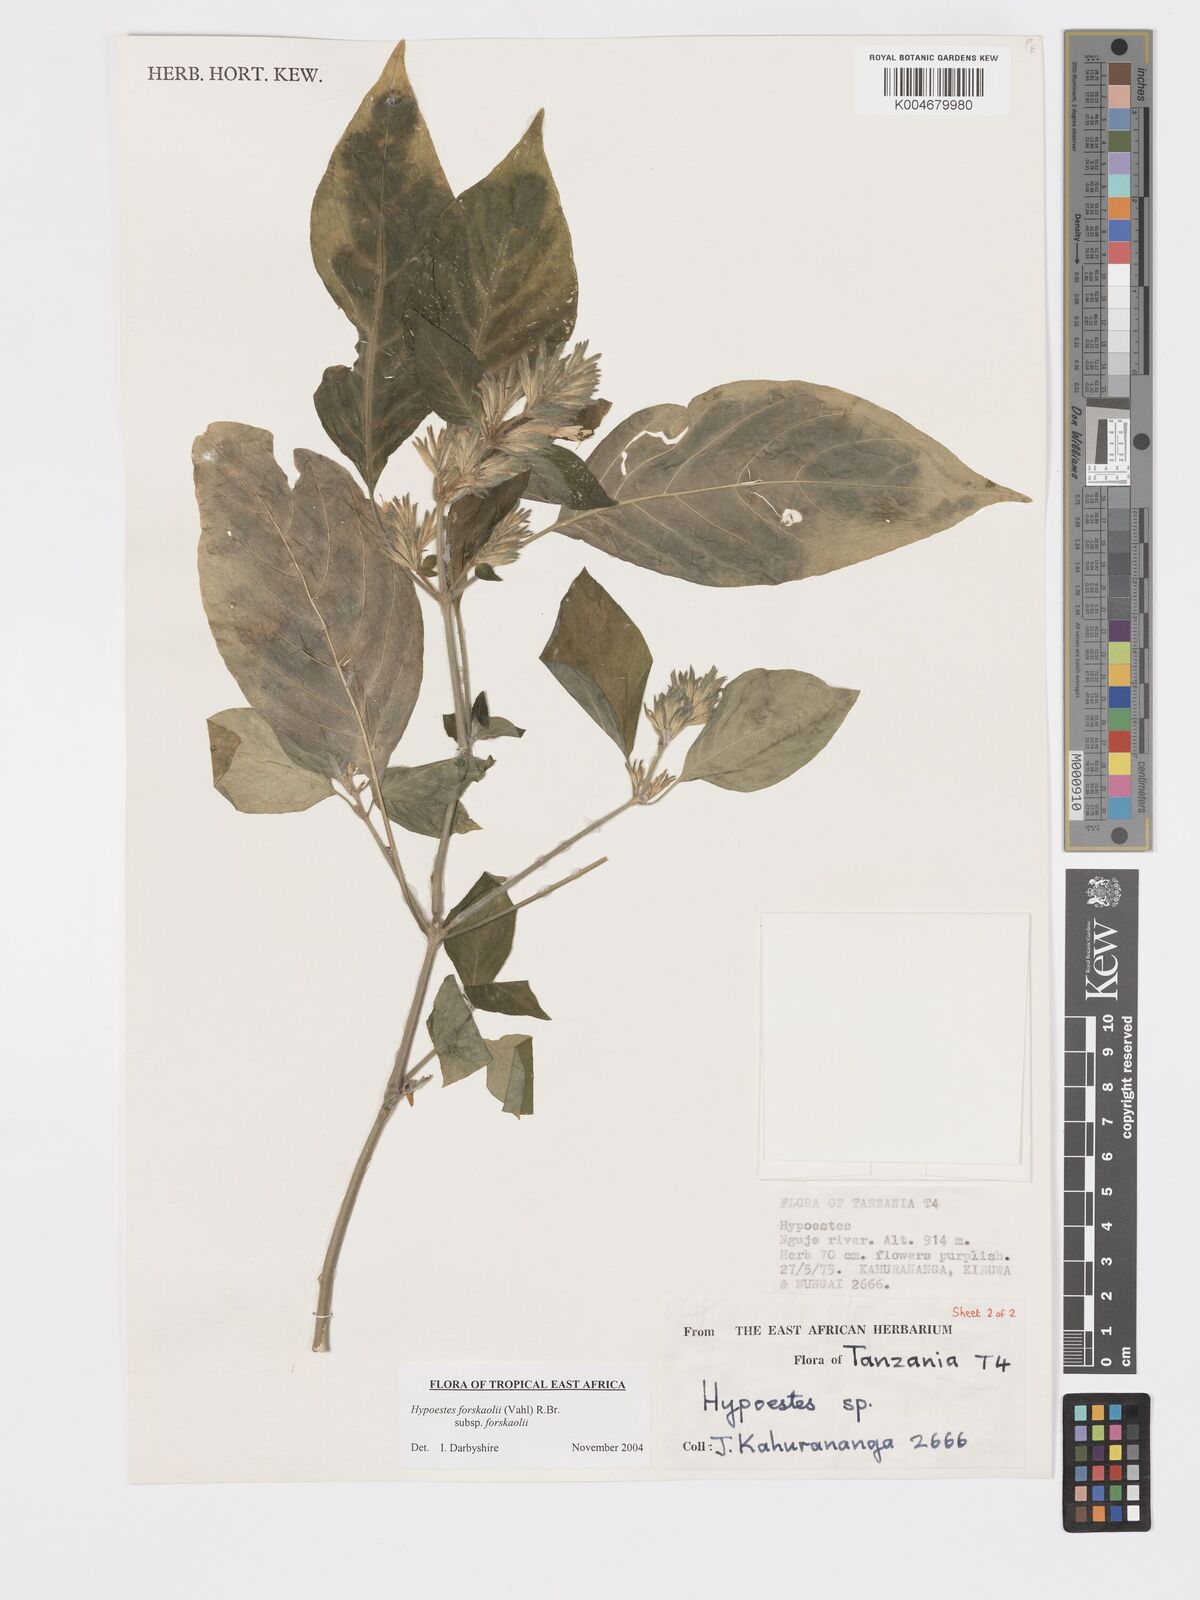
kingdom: Plantae
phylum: Tracheophyta
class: Magnoliopsida
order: Lamiales
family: Acanthaceae
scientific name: Acanthaceae
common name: Acanthaceae
